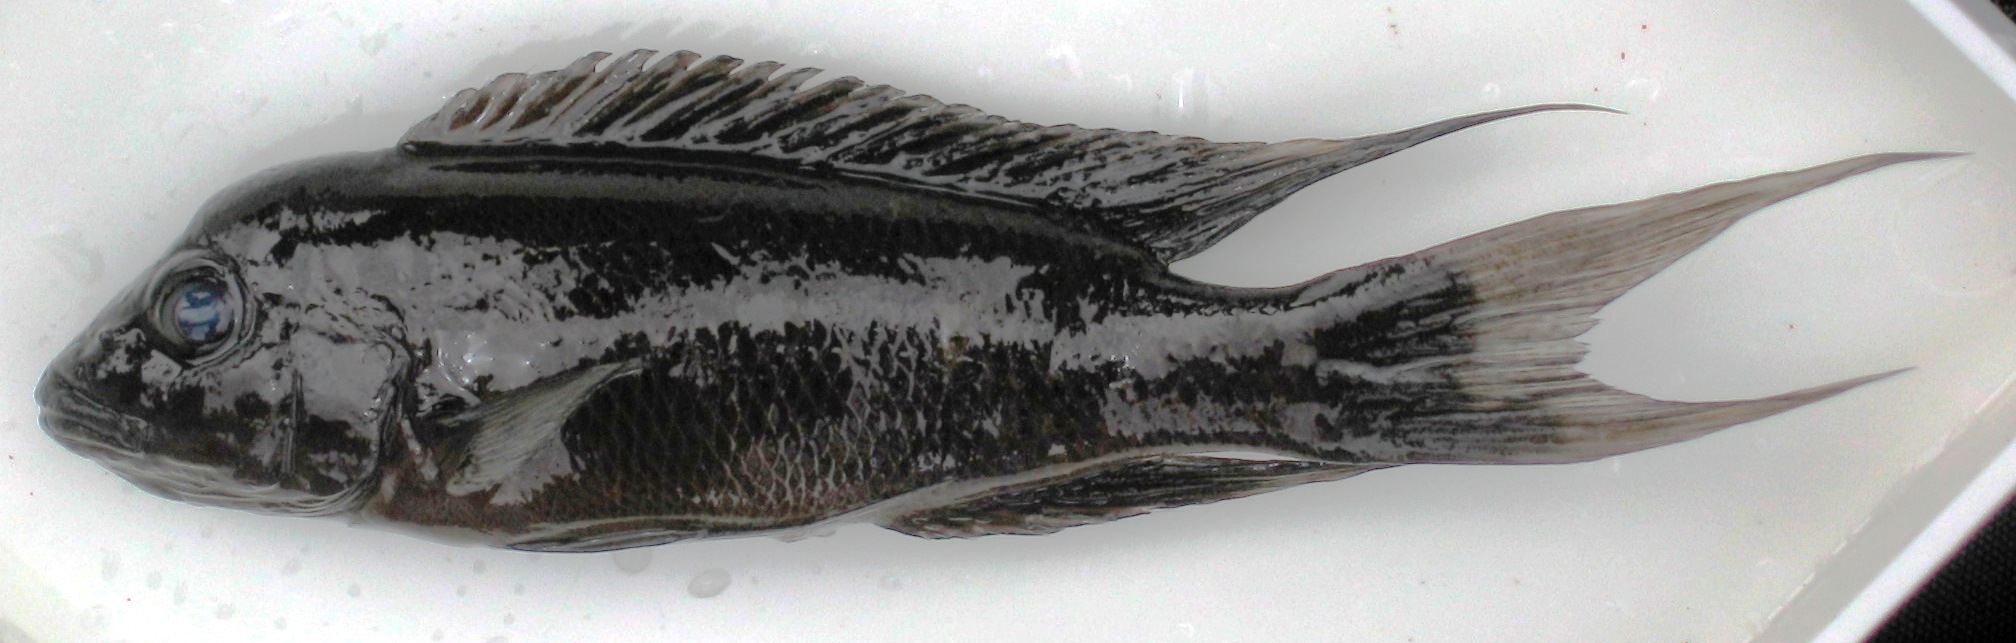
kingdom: Animalia
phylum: Chordata
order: Perciformes
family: Cichlidae
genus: Neolamprologus
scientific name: Neolamprologus christyi
